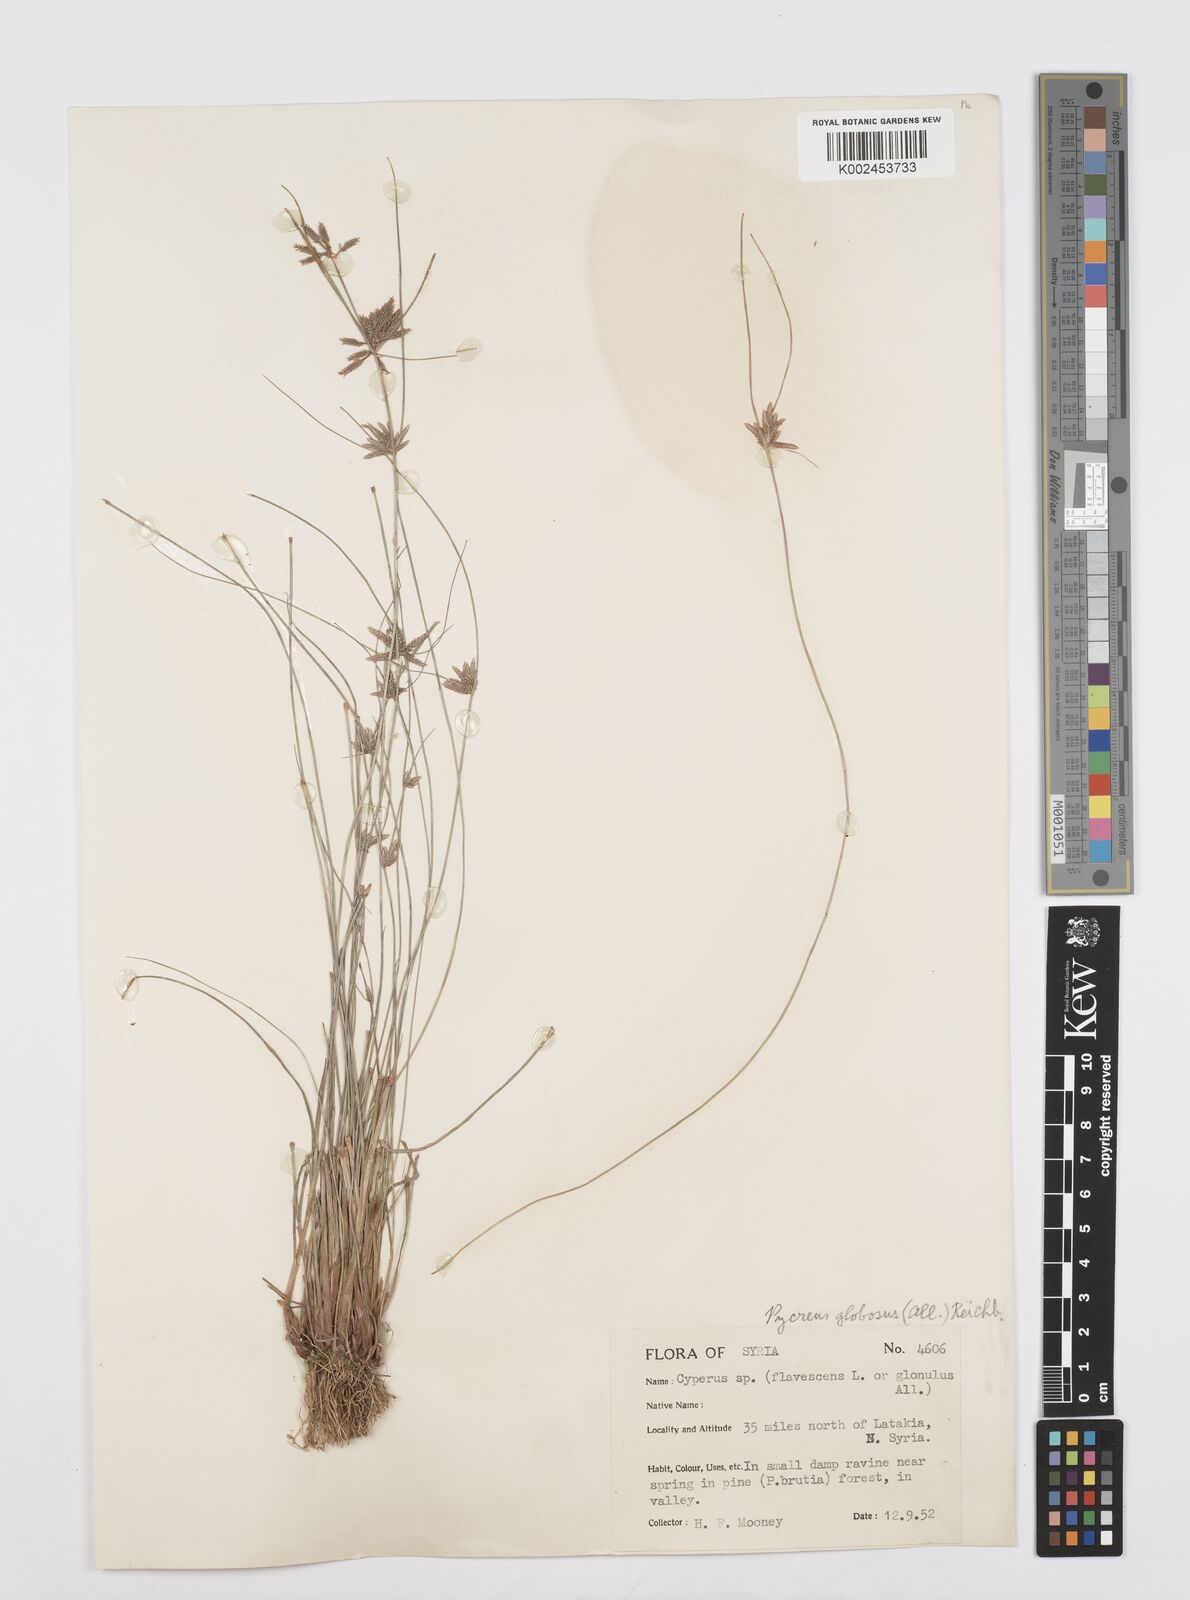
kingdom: Plantae
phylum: Tracheophyta
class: Liliopsida
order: Poales
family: Cyperaceae
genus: Cyperus
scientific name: Cyperus flavidus
